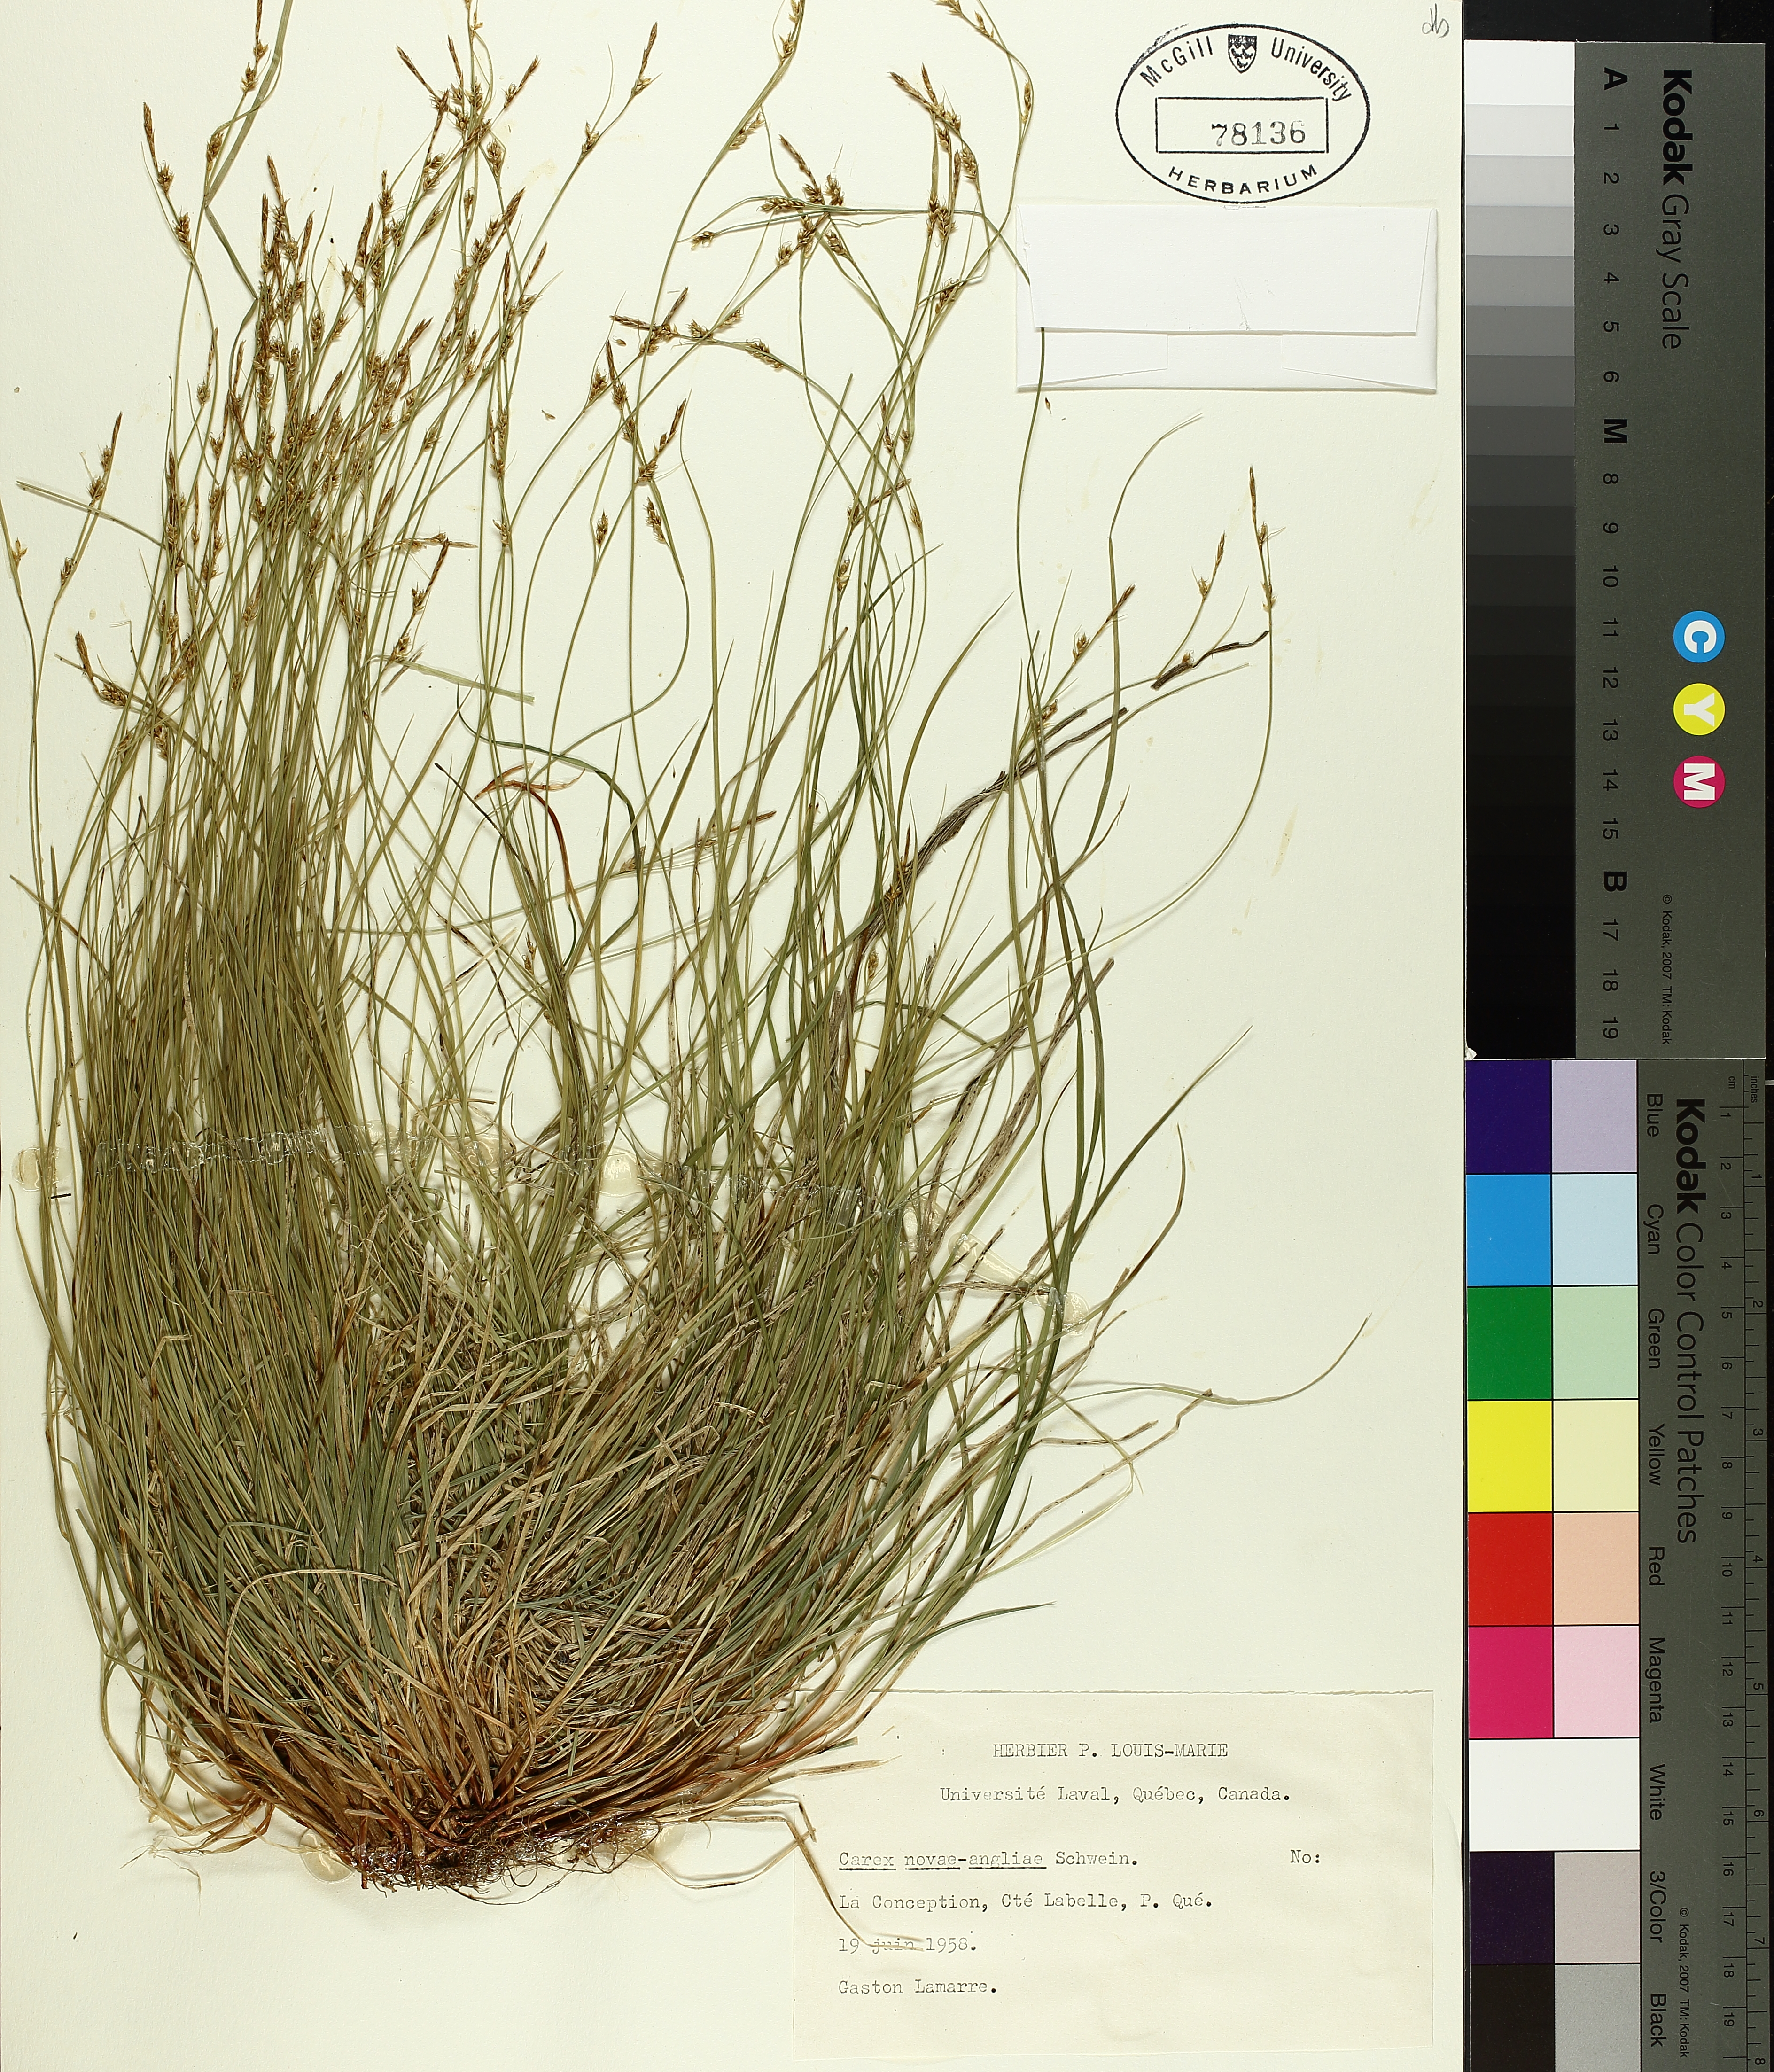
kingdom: Plantae
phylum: Tracheophyta
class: Liliopsida
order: Poales
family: Cyperaceae
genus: Carex
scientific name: Carex novae-angliae
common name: New england sedge
